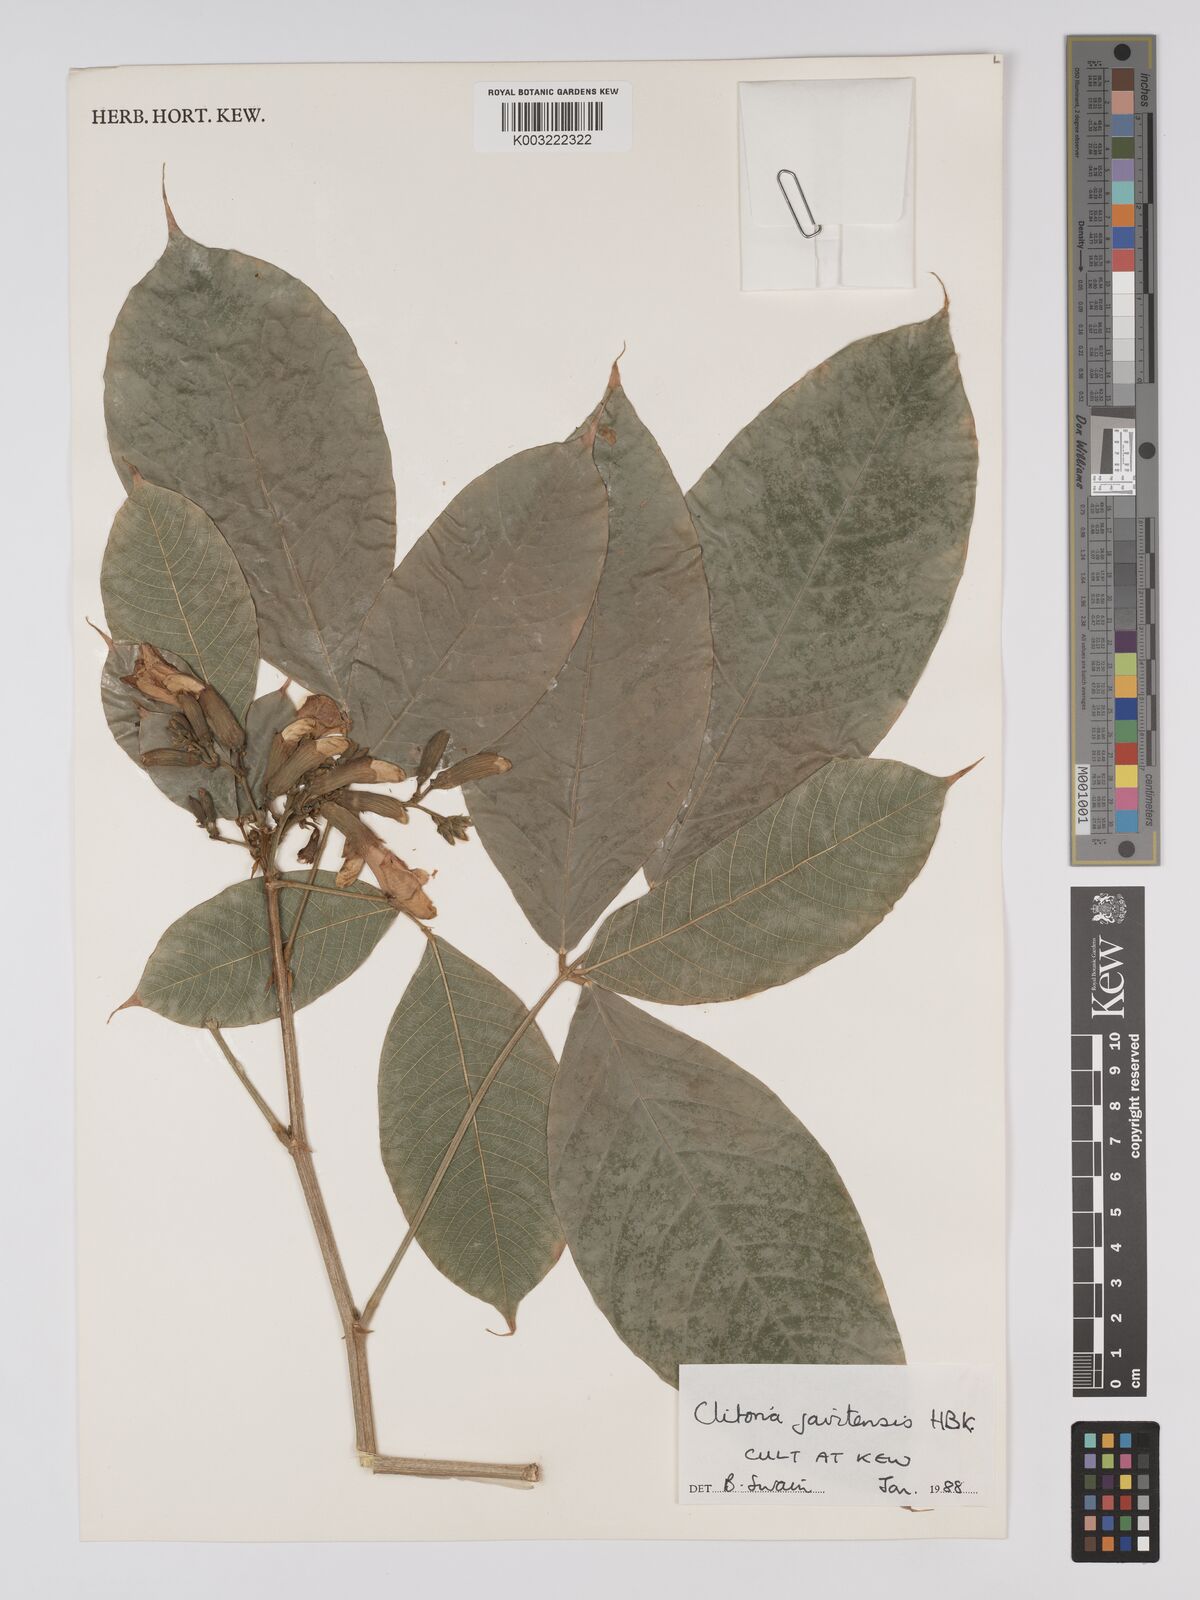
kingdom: Plantae
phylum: Tracheophyta
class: Magnoliopsida
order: Fabales
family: Fabaceae
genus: Clitoria
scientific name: Clitoria javitensis
